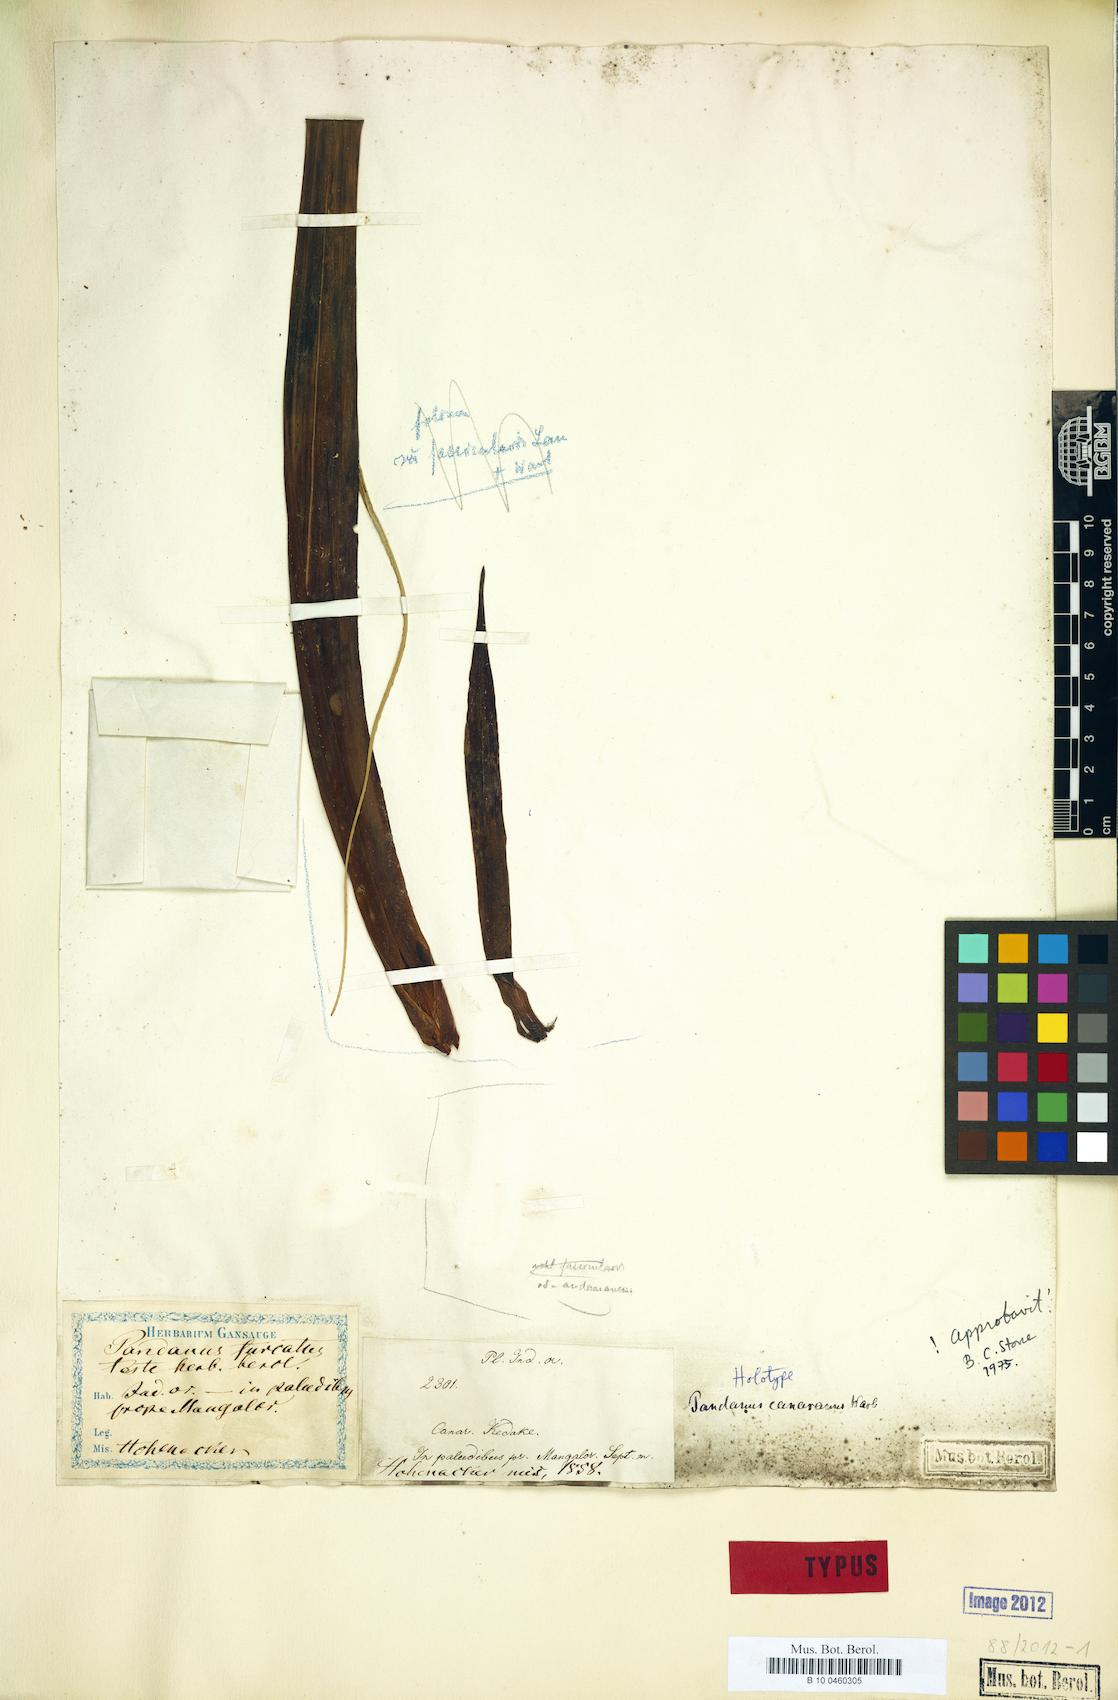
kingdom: Plantae
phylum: Tracheophyta
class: Liliopsida
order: Pandanales
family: Pandanaceae
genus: Pandanus
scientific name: Pandanus unipapillatus
